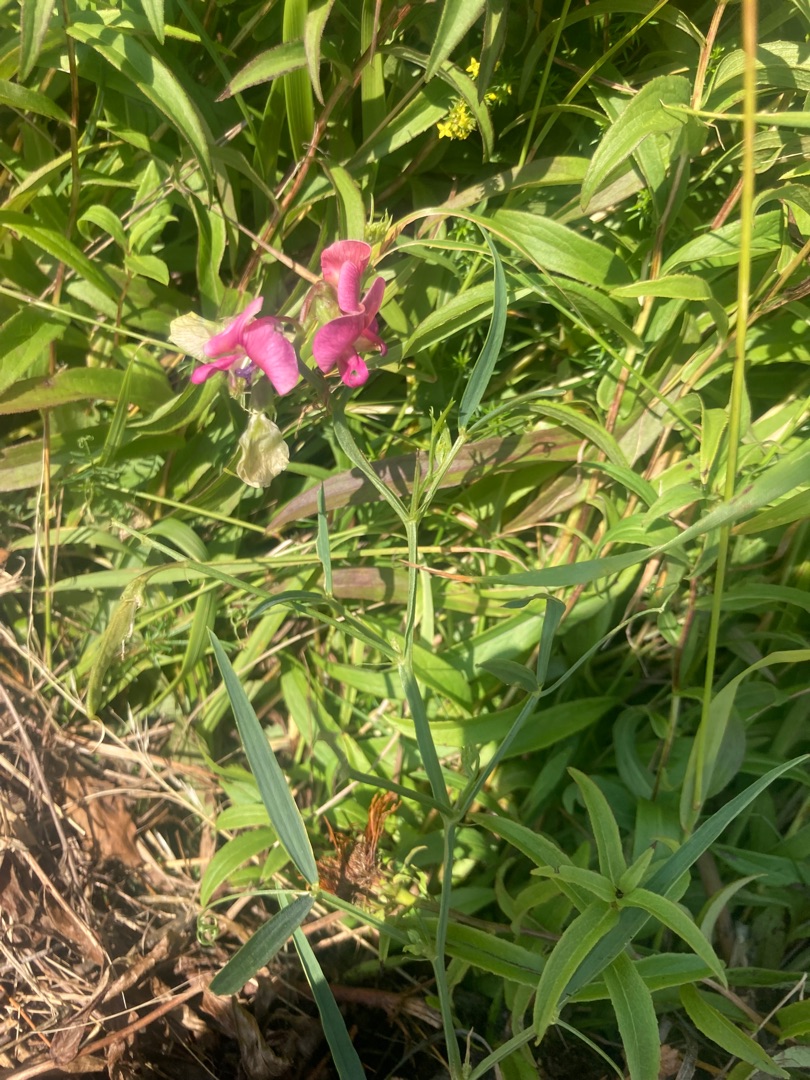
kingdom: Plantae
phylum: Tracheophyta
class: Magnoliopsida
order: Fabales
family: Fabaceae
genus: Lathyrus
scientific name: Lathyrus sylvestris
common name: Skov-fladbælg
